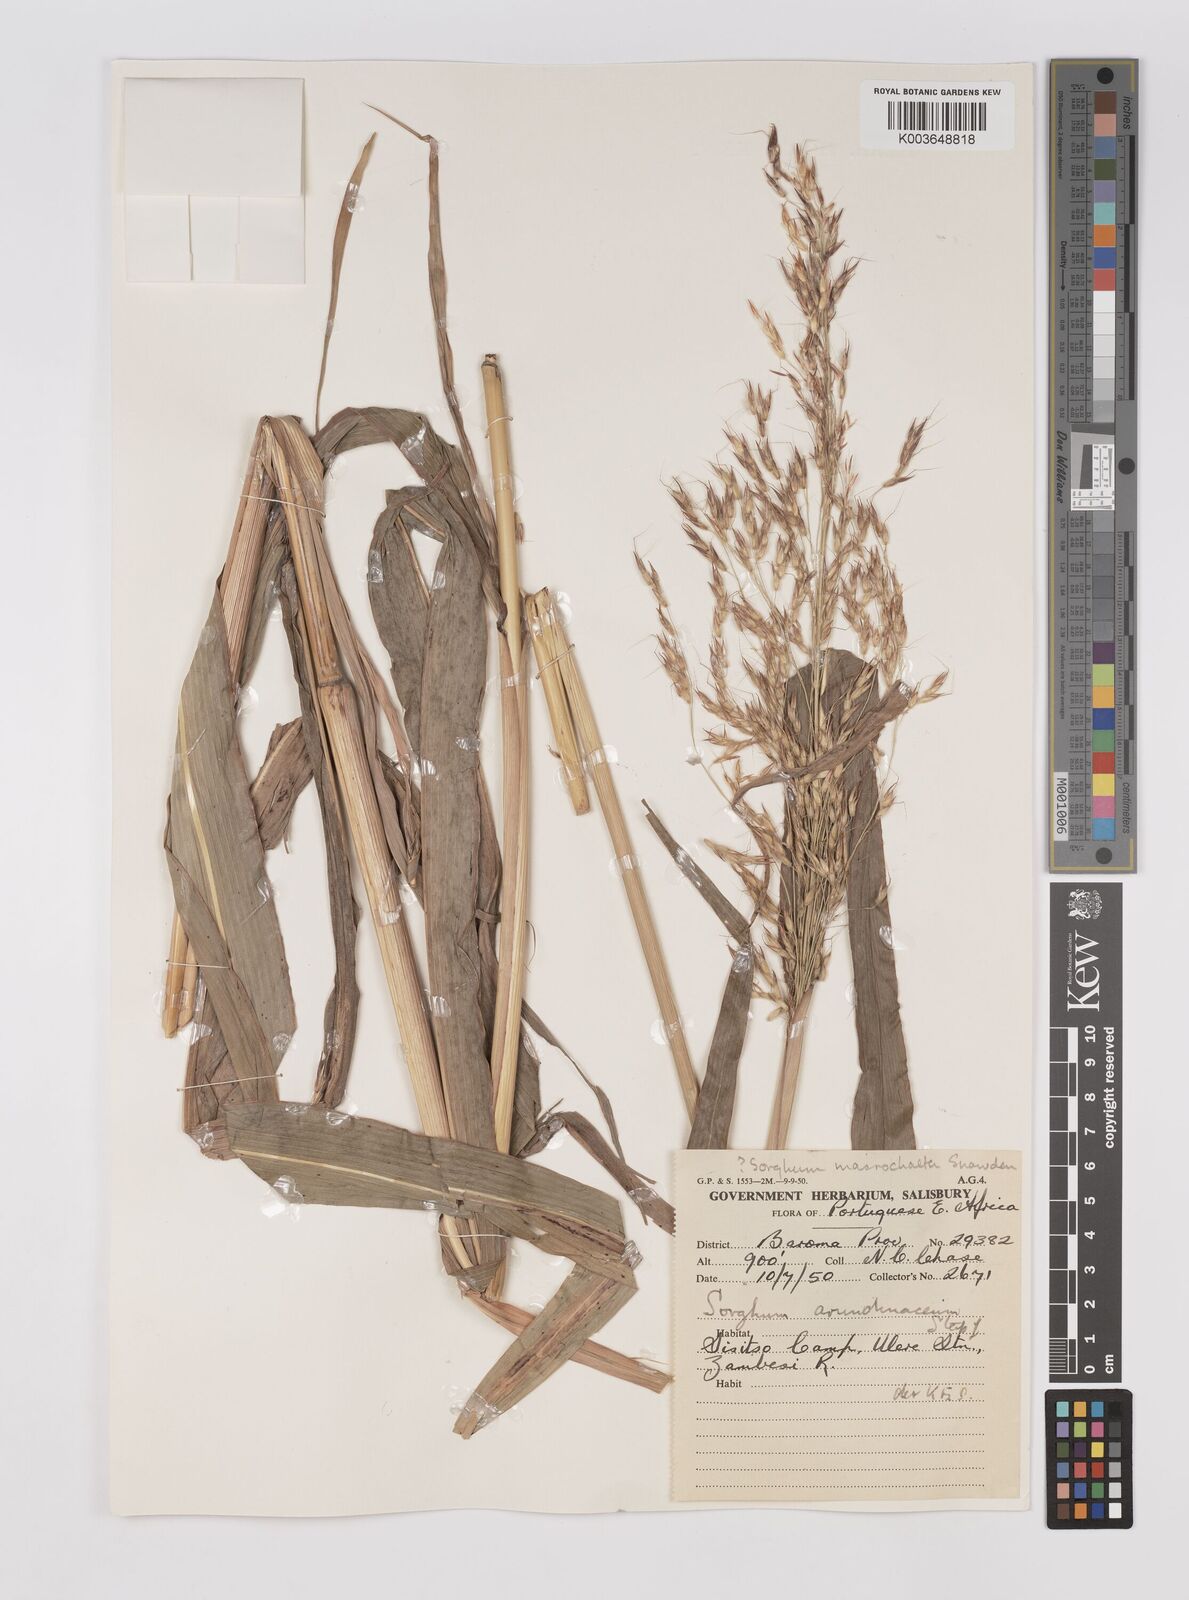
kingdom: Plantae
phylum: Tracheophyta
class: Liliopsida
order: Poales
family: Poaceae
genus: Sorghum
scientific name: Sorghum arundinaceum
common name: Sorghum
